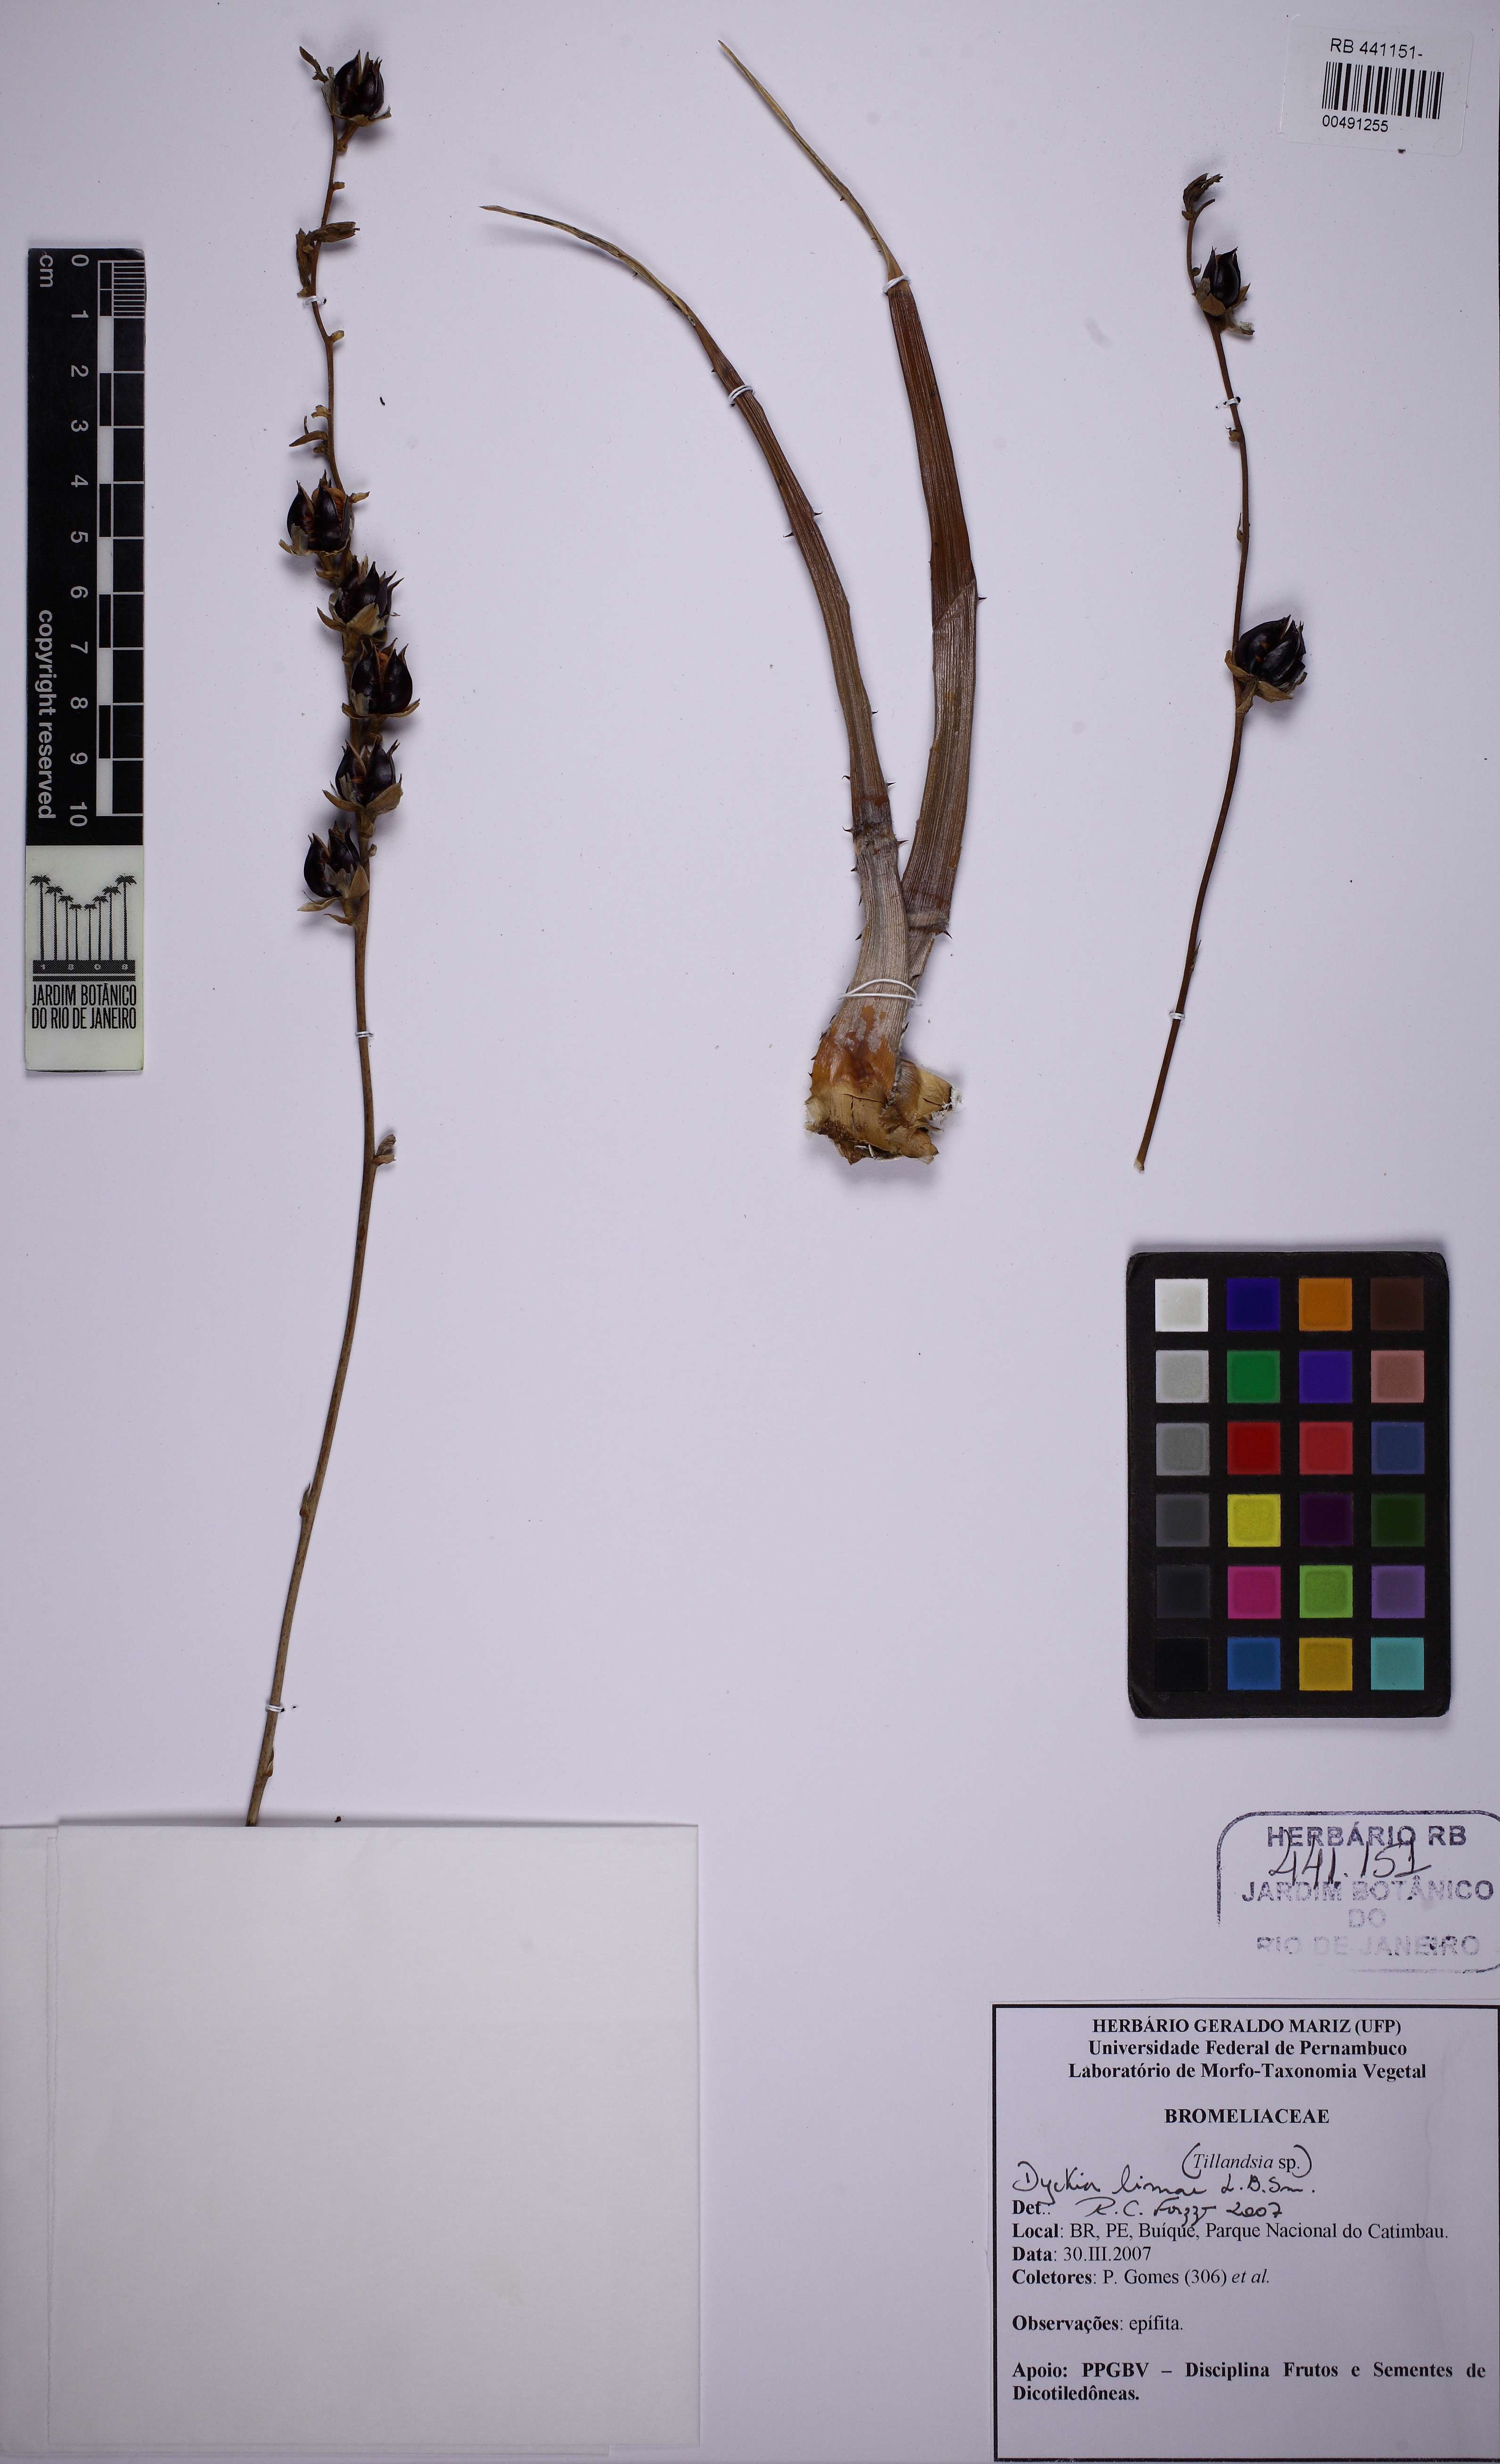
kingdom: Plantae
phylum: Tracheophyta
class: Liliopsida
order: Poales
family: Bromeliaceae
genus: Dyckia
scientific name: Dyckia limae
